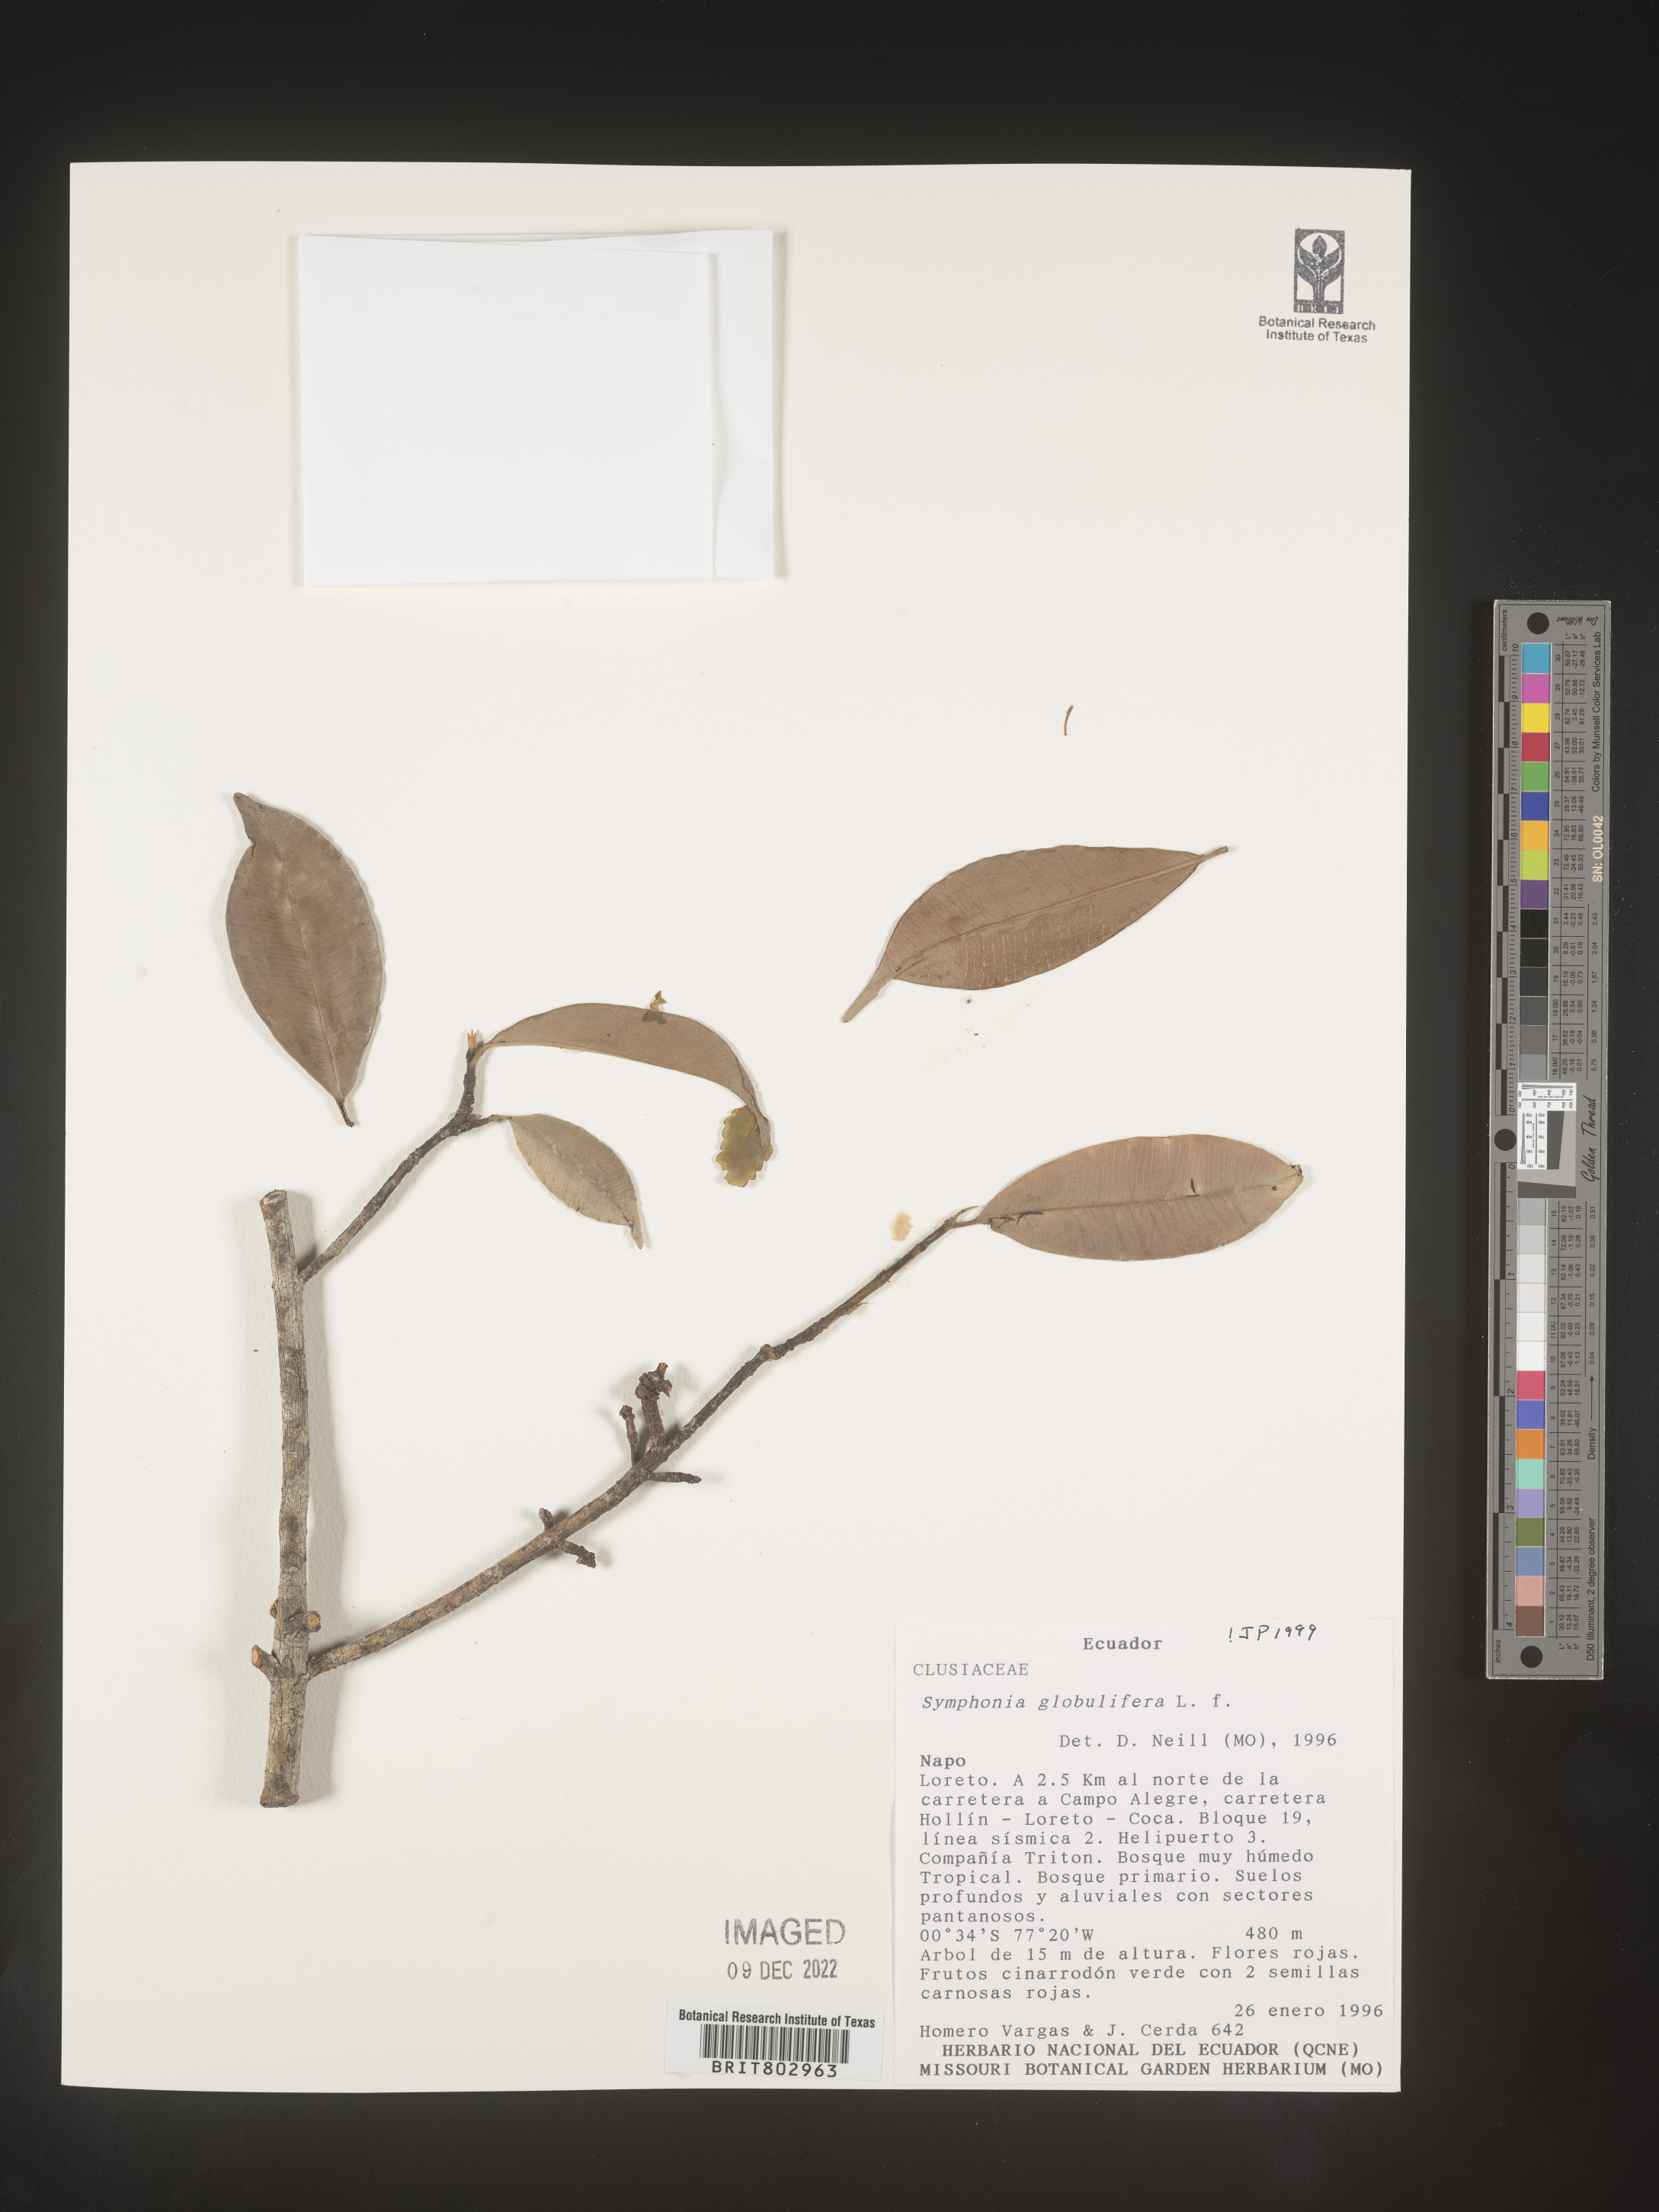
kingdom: Plantae
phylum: Tracheophyta
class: Magnoliopsida
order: Malpighiales
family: Clusiaceae
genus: Symphonia
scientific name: Symphonia
